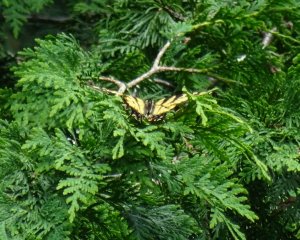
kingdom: Animalia
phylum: Arthropoda
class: Insecta
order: Lepidoptera
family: Papilionidae
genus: Pterourus
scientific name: Pterourus glaucus
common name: Eastern Tiger Swallowtail
